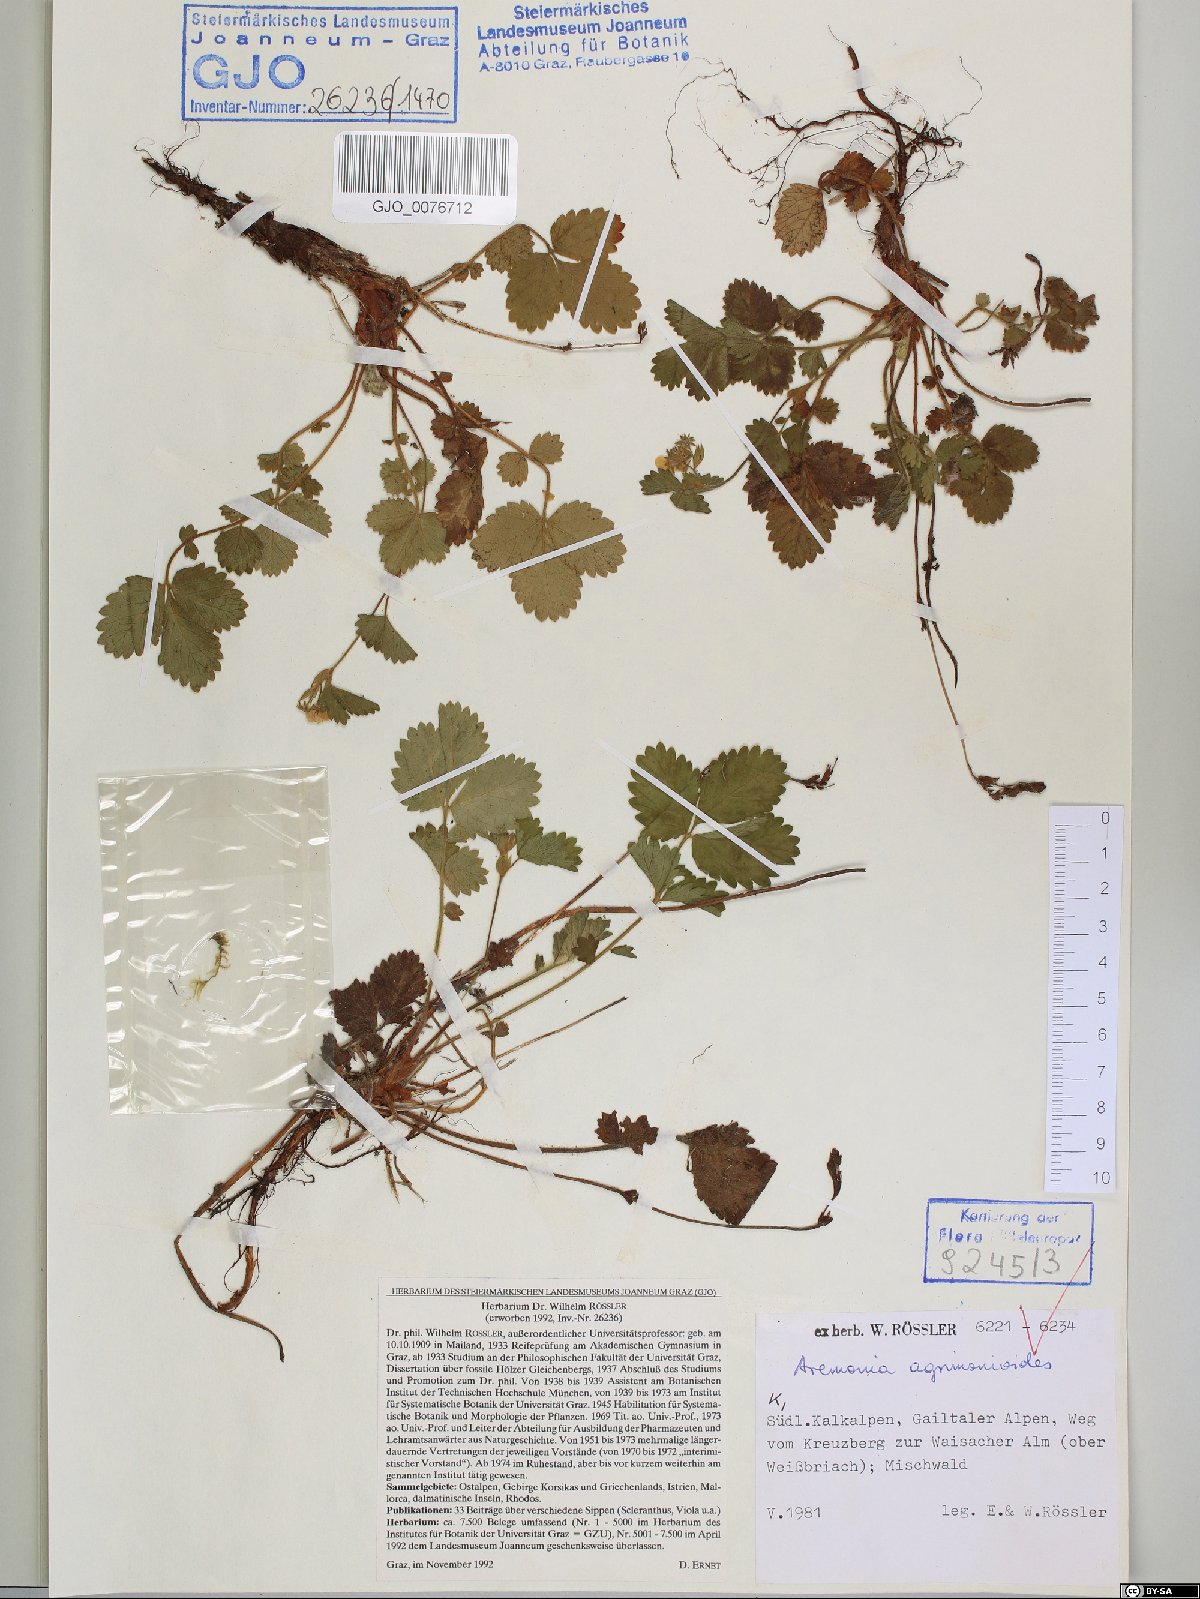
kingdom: Plantae
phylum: Tracheophyta
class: Magnoliopsida
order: Rosales
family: Rosaceae
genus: Aremonia
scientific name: Aremonia agrimonoides
